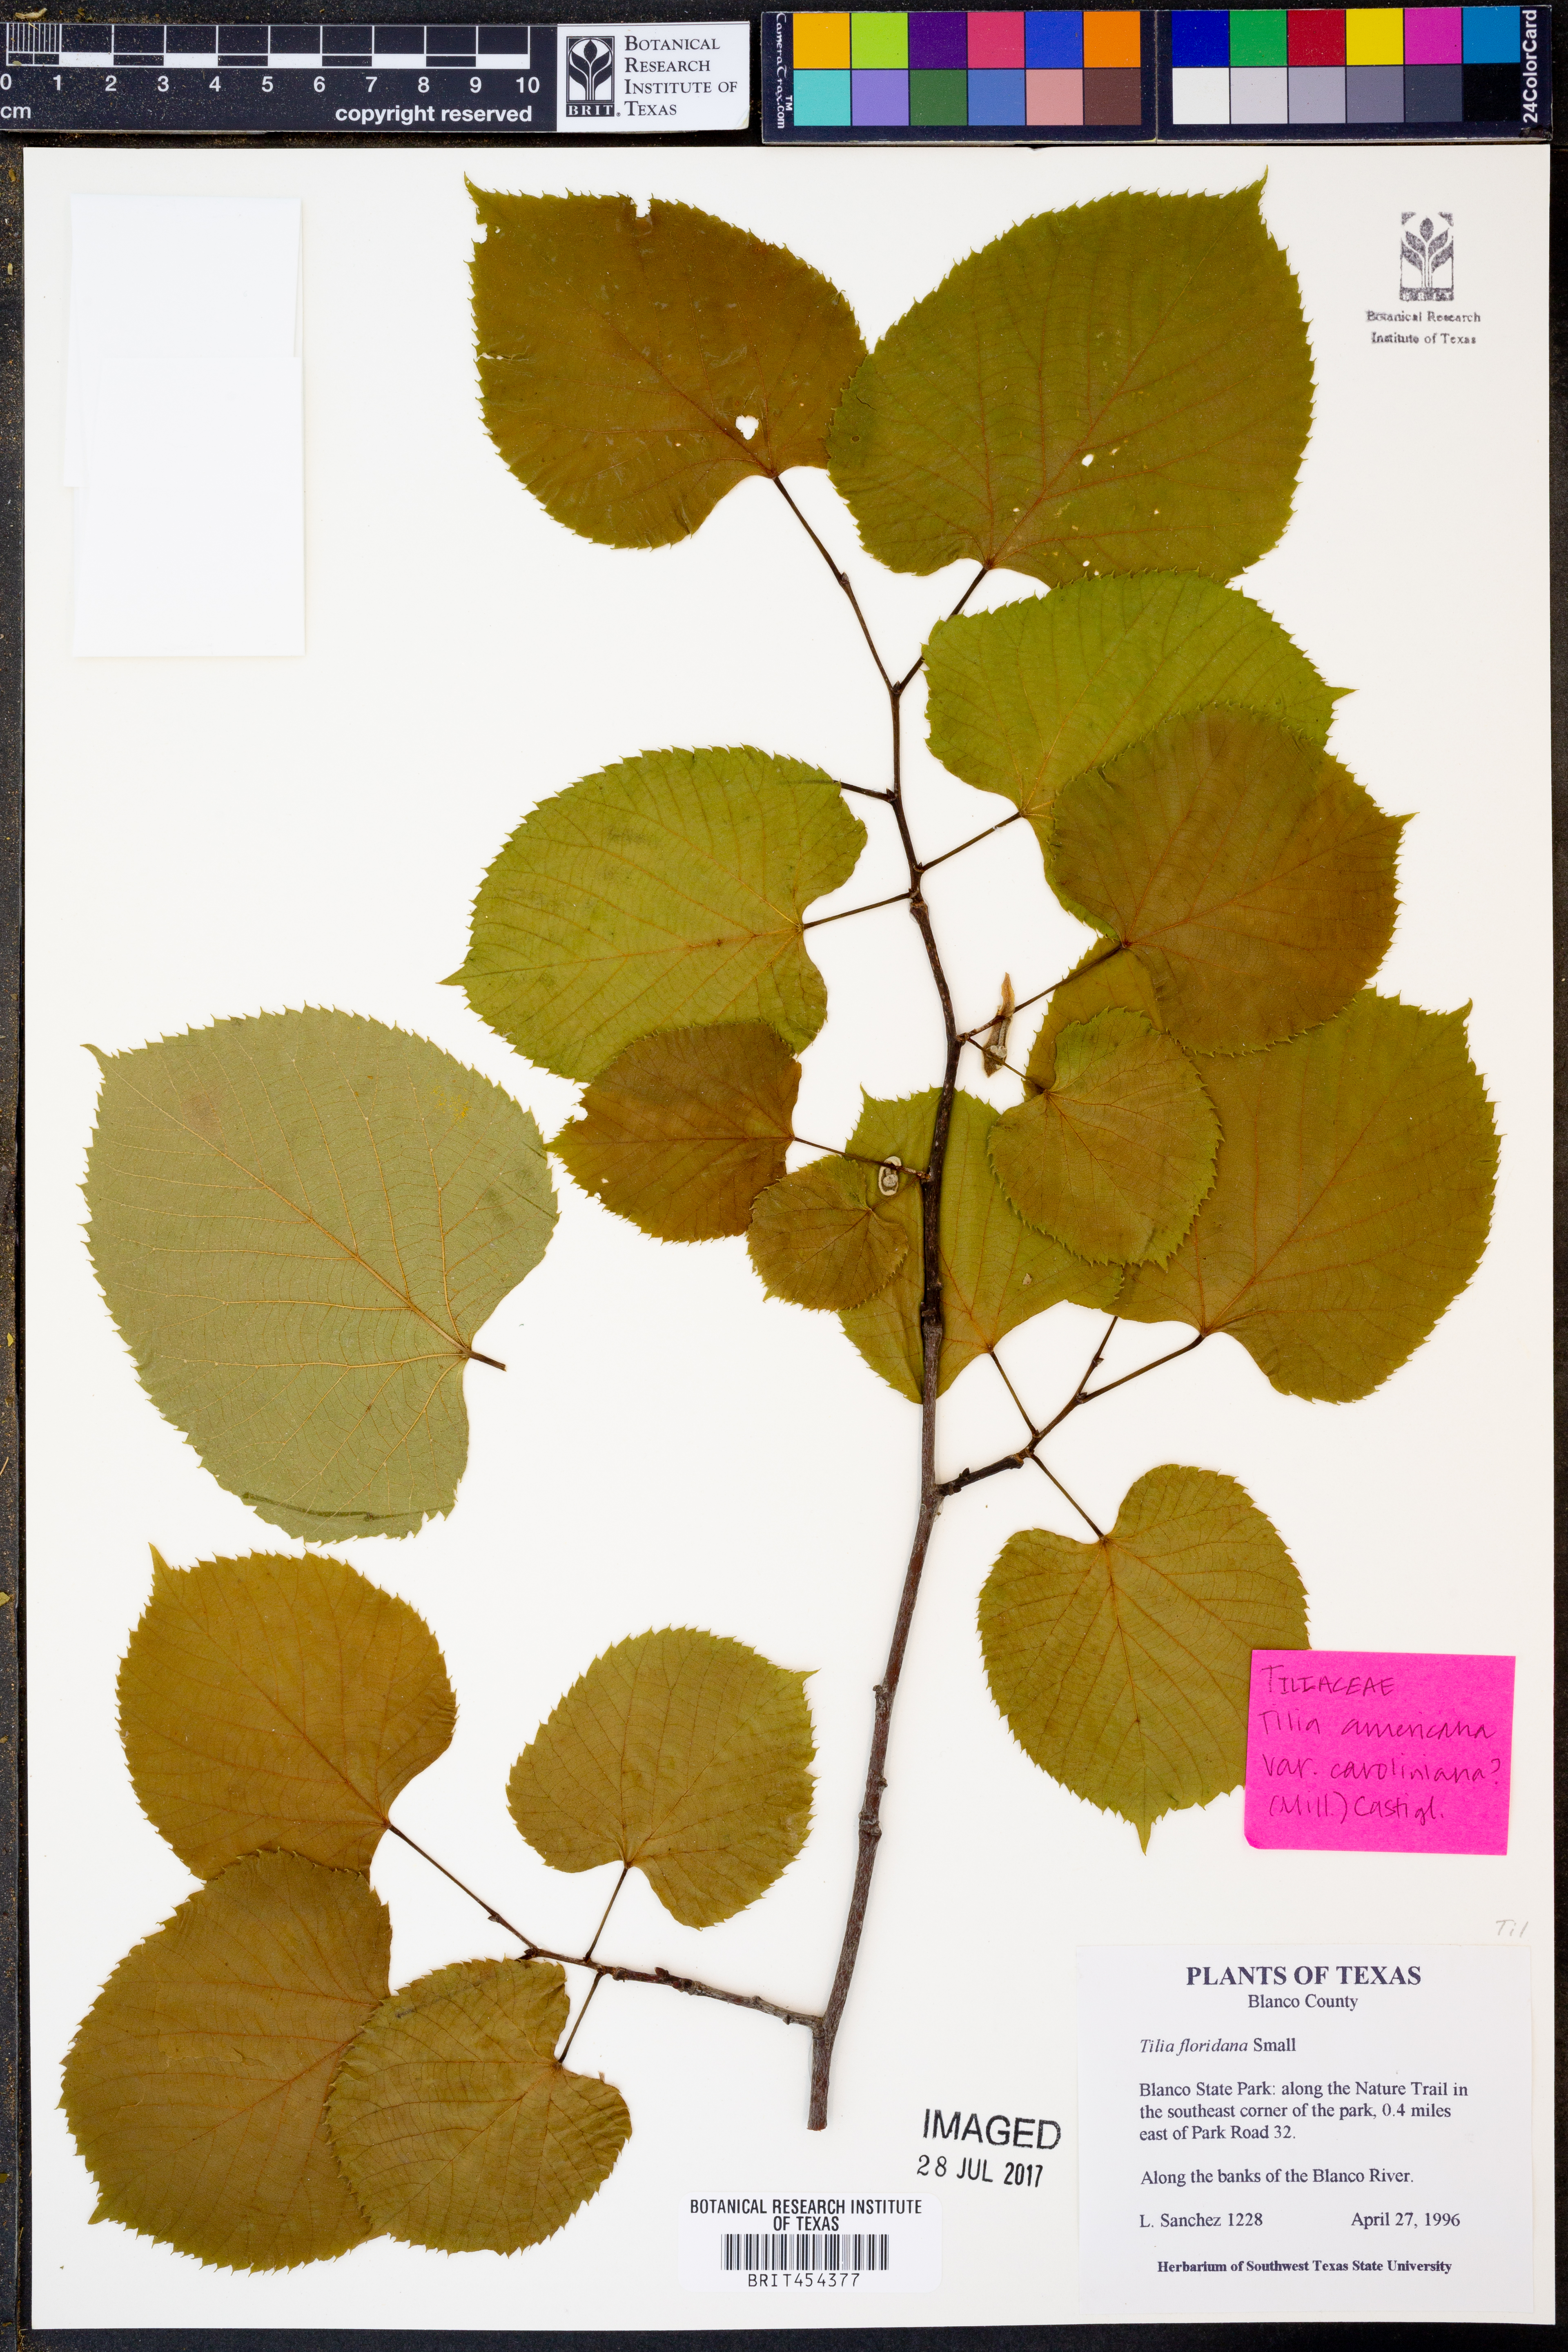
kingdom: Plantae
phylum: Tracheophyta
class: Magnoliopsida
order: Malvales
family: Malvaceae
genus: Tilia
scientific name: Tilia americana
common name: Basswood
